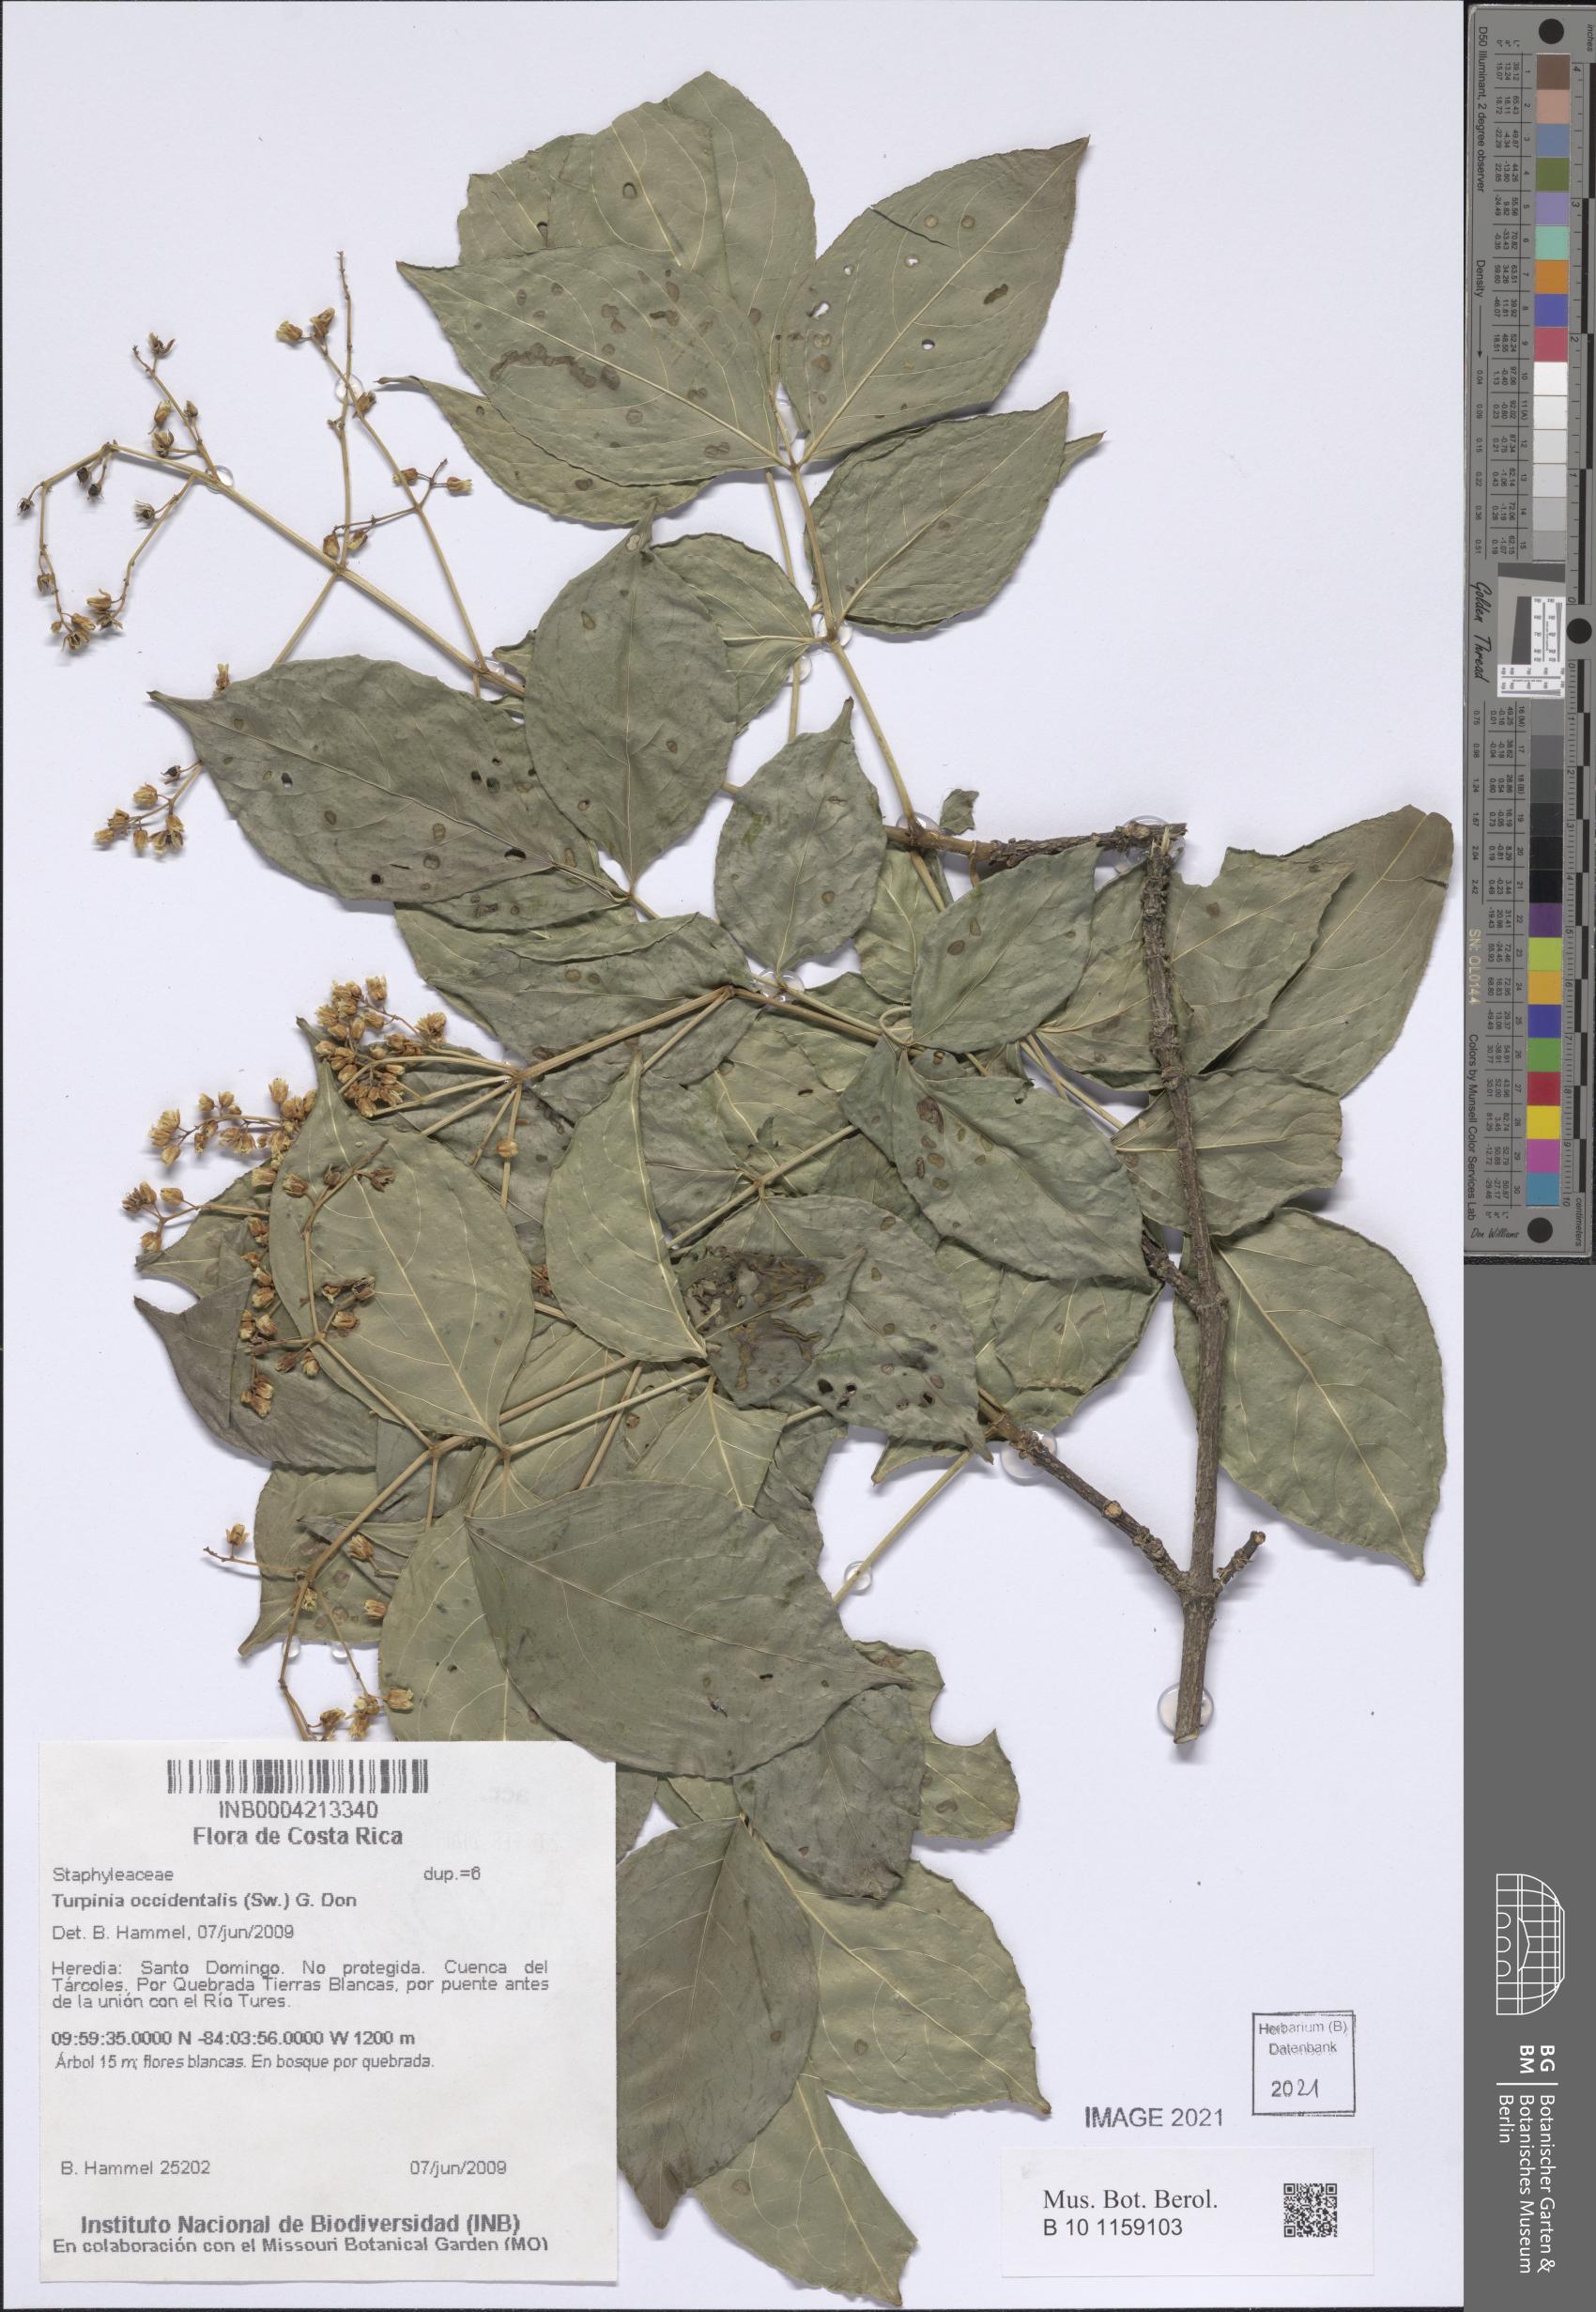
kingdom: Plantae
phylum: Tracheophyta
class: Magnoliopsida
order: Crossosomatales
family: Staphyleaceae
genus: Turpinia
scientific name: Turpinia occidentalis
